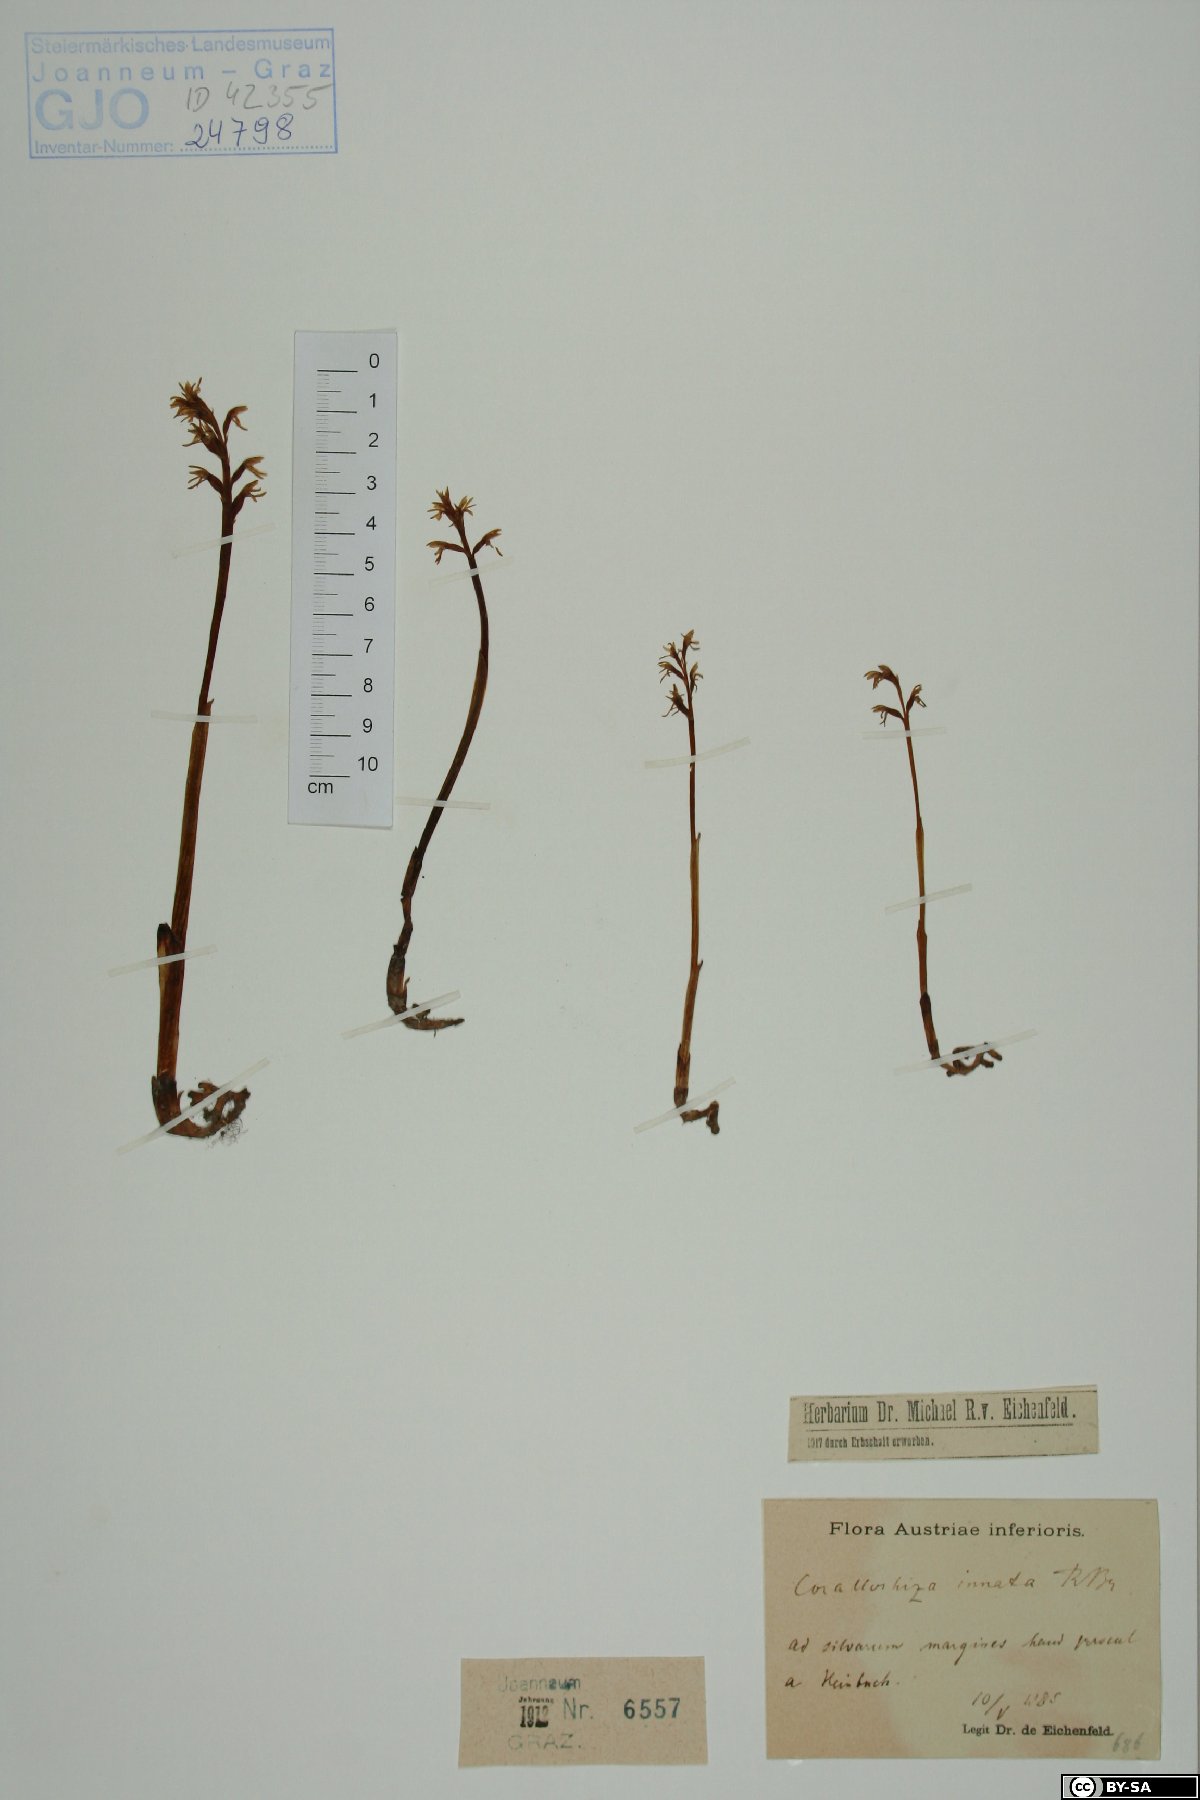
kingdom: Plantae
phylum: Tracheophyta
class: Liliopsida
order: Asparagales
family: Orchidaceae
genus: Corallorhiza
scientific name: Corallorhiza trifida
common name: Yellow coralroot
